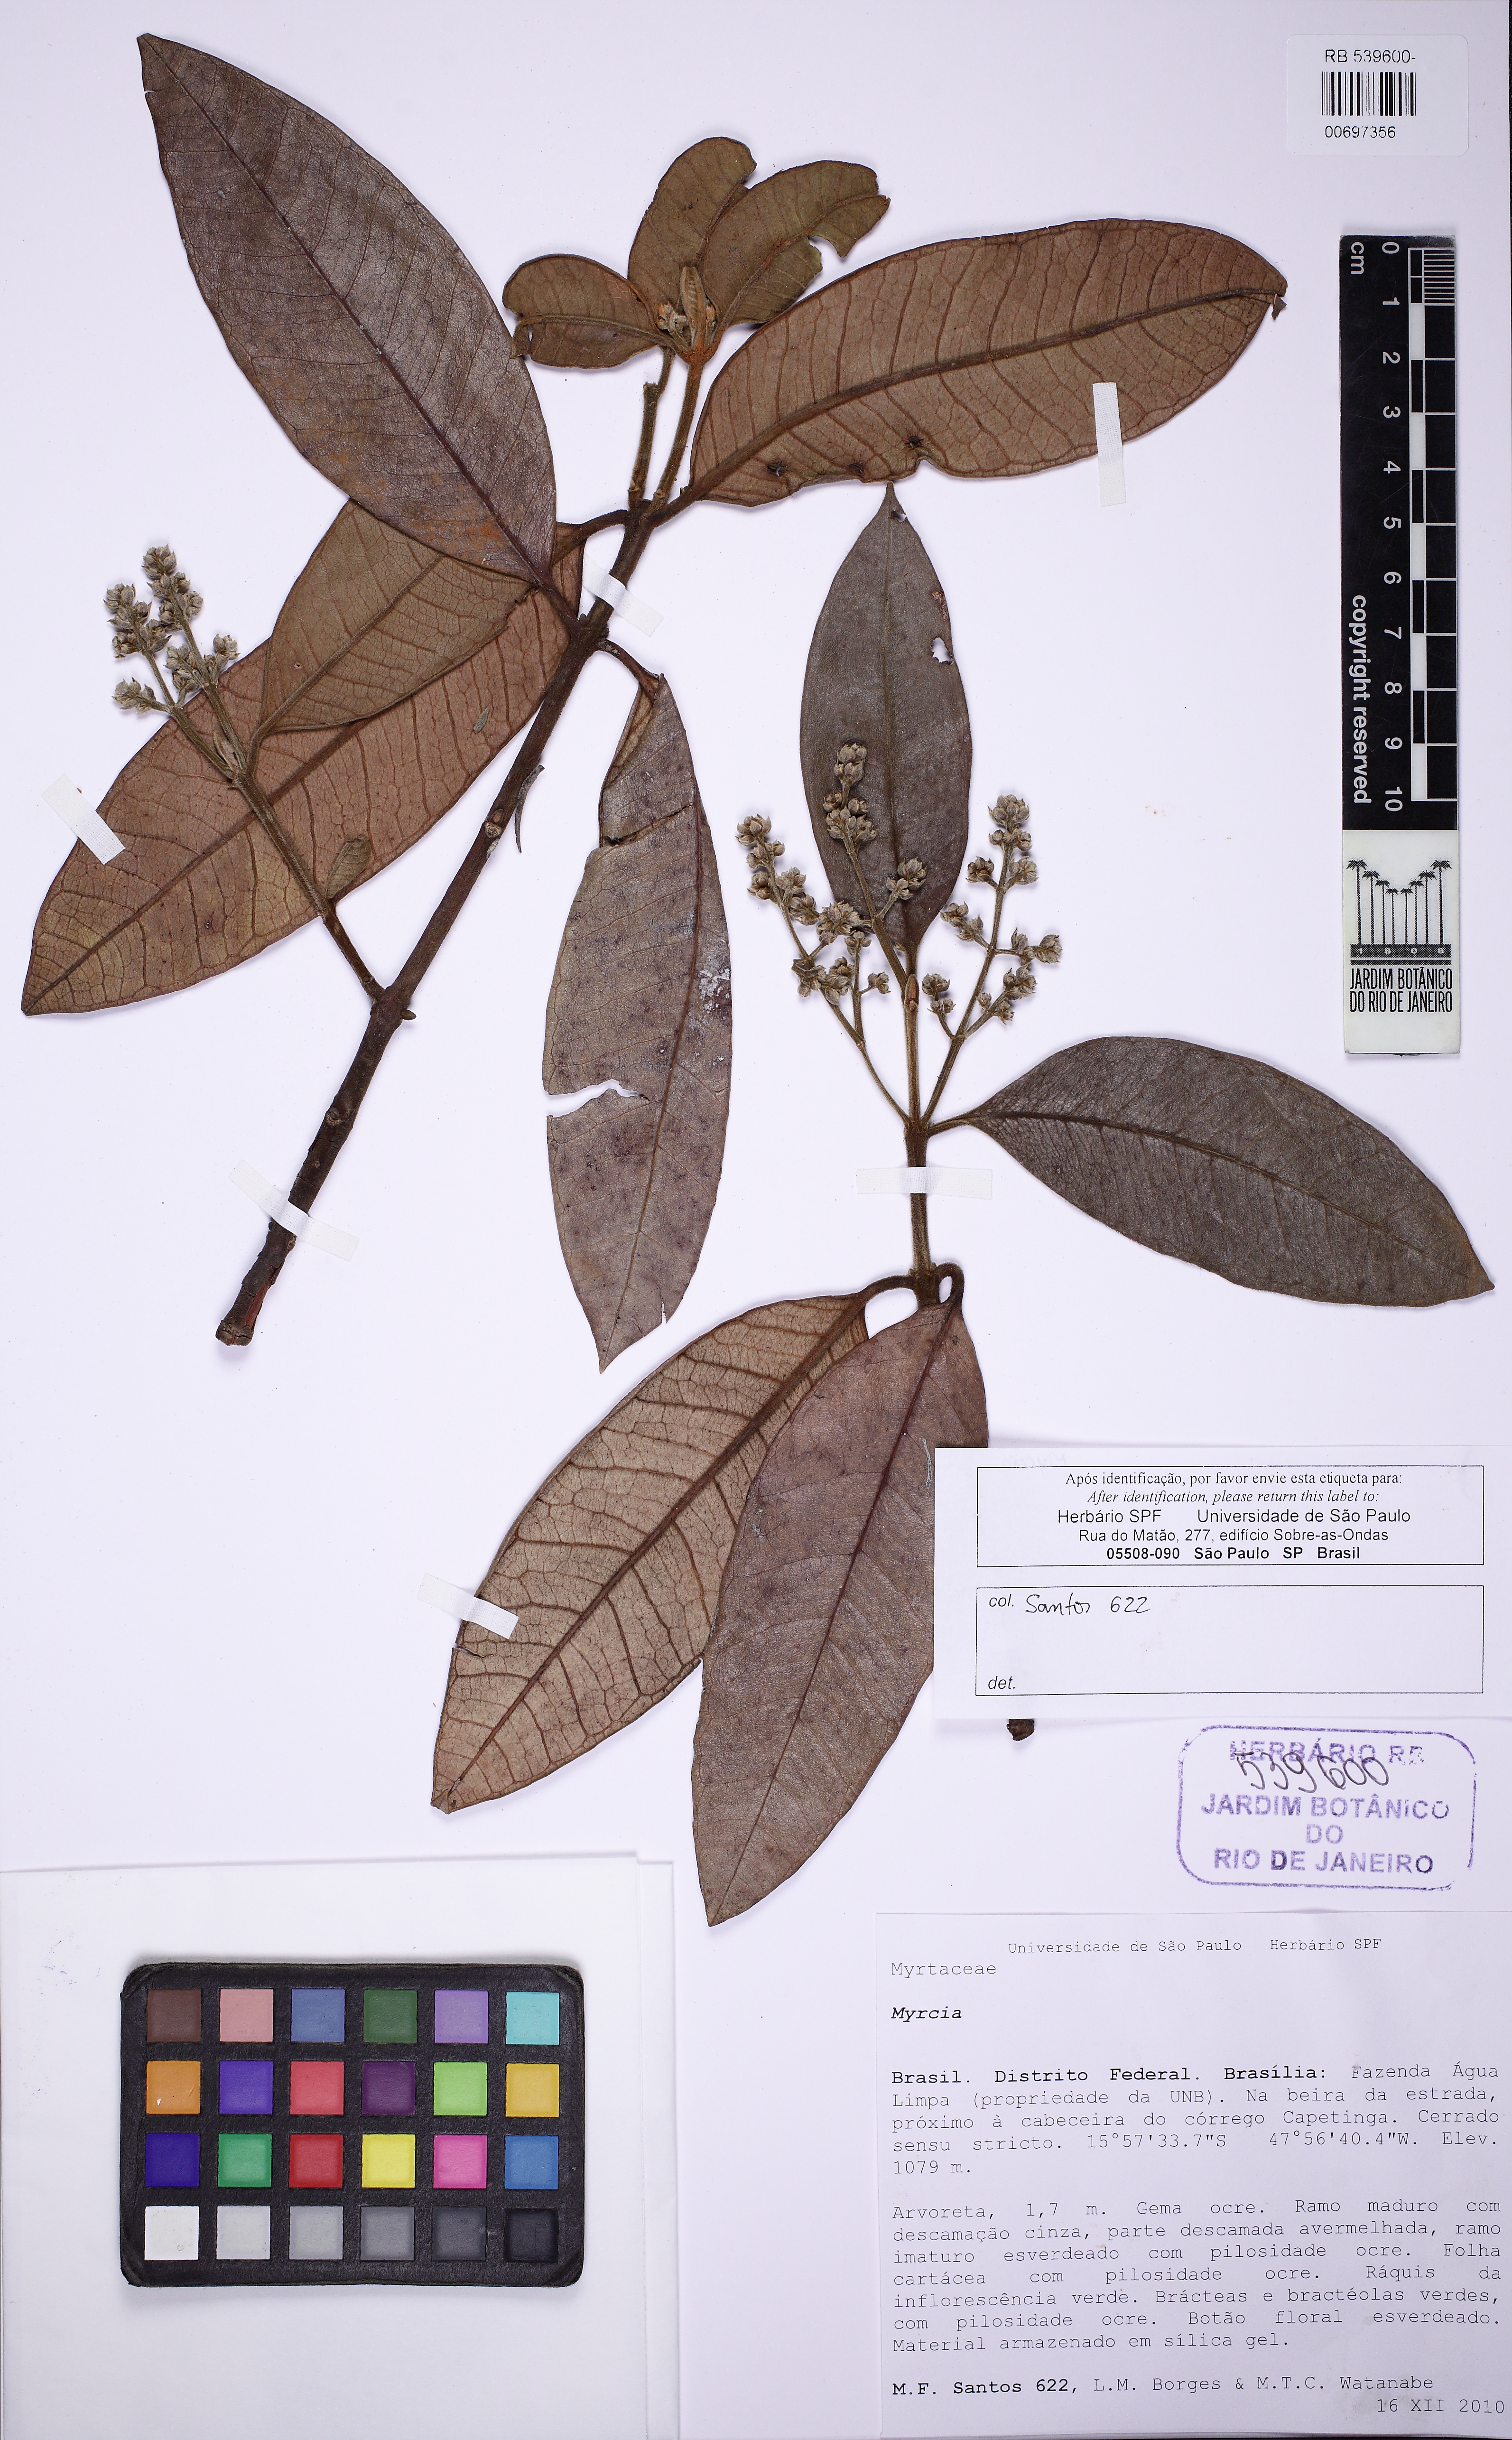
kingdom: Plantae
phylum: Tracheophyta
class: Magnoliopsida
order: Myrtales
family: Myrtaceae
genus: Myrcia
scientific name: Myrcia
